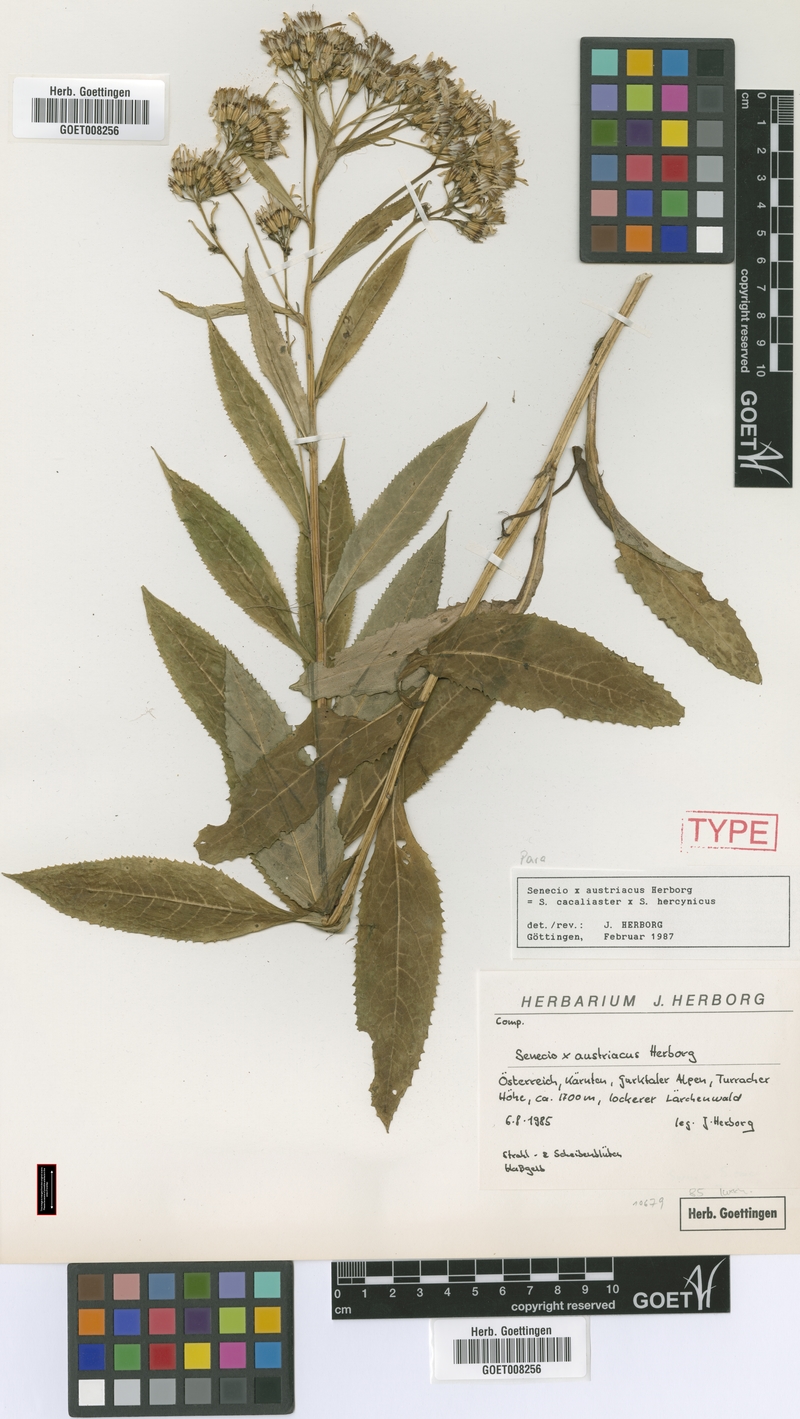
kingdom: Plantae
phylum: Tracheophyta
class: Magnoliopsida
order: Asterales
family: Asteraceae
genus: Senecio
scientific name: Senecio austriacus
